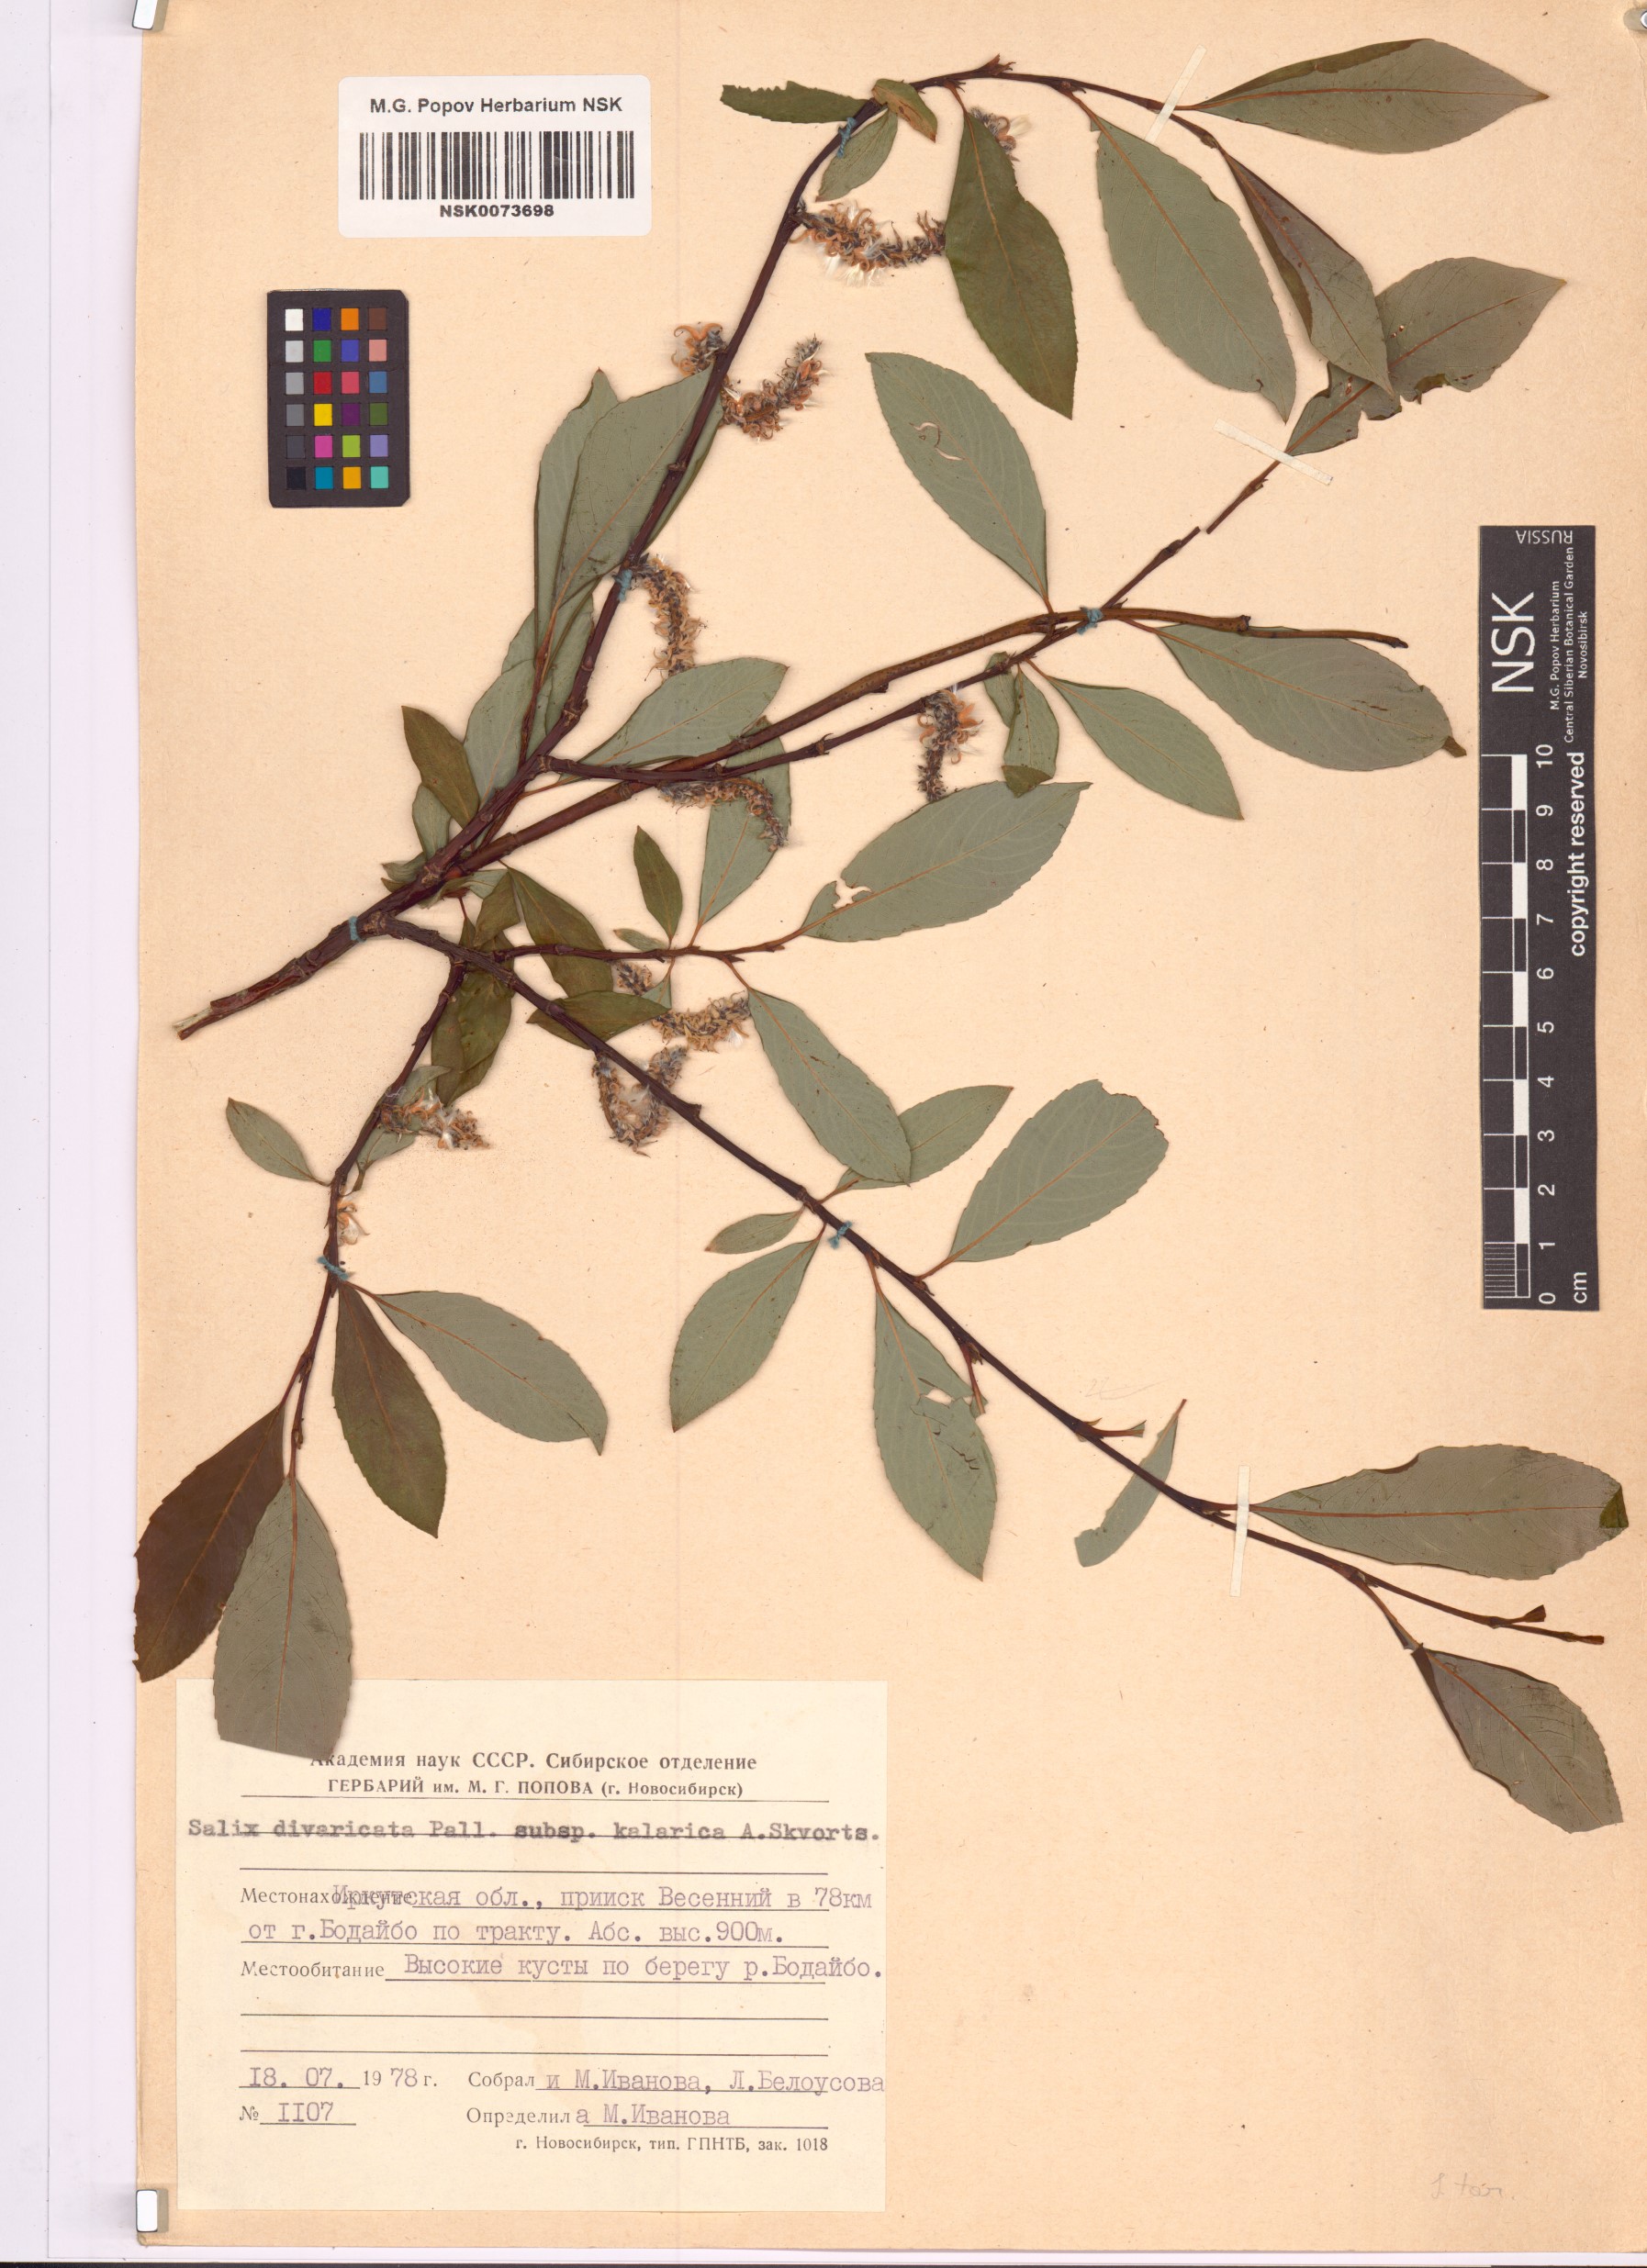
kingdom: Plantae
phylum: Tracheophyta
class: Magnoliopsida
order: Malpighiales
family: Salicaceae
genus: Salix
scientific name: Salix kalarica
